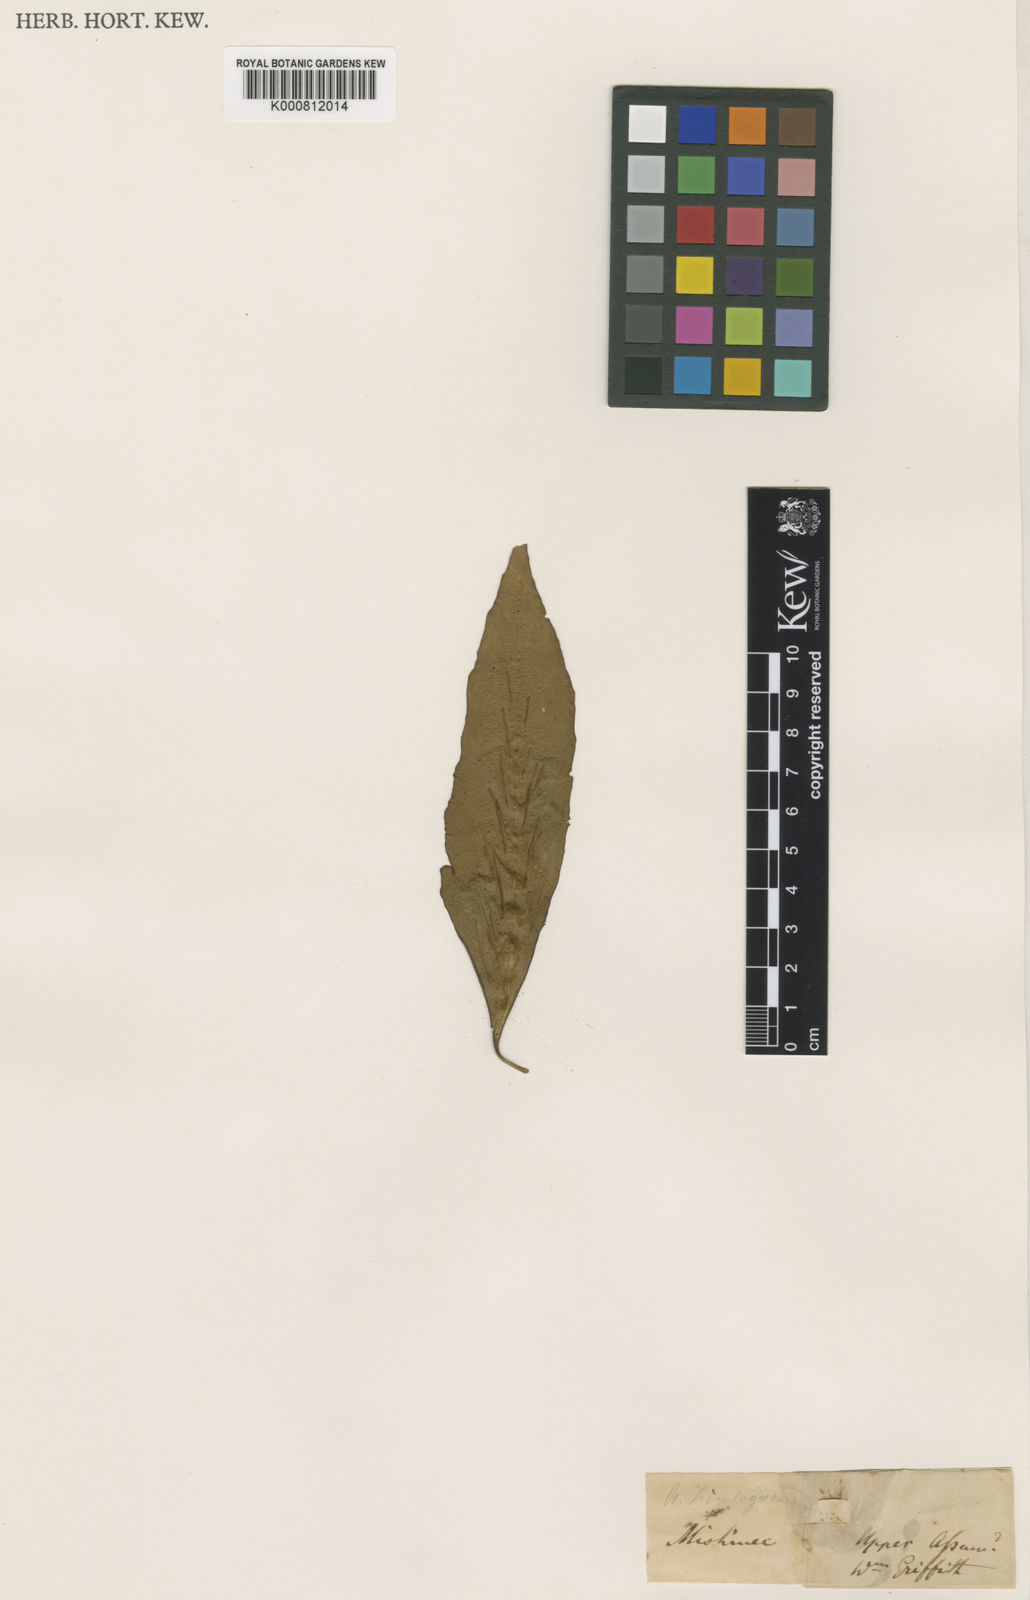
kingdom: Plantae
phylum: Tracheophyta
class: Polypodiopsida
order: Polypodiales
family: Aspleniaceae
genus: Asplenium
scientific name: Asplenium simile
